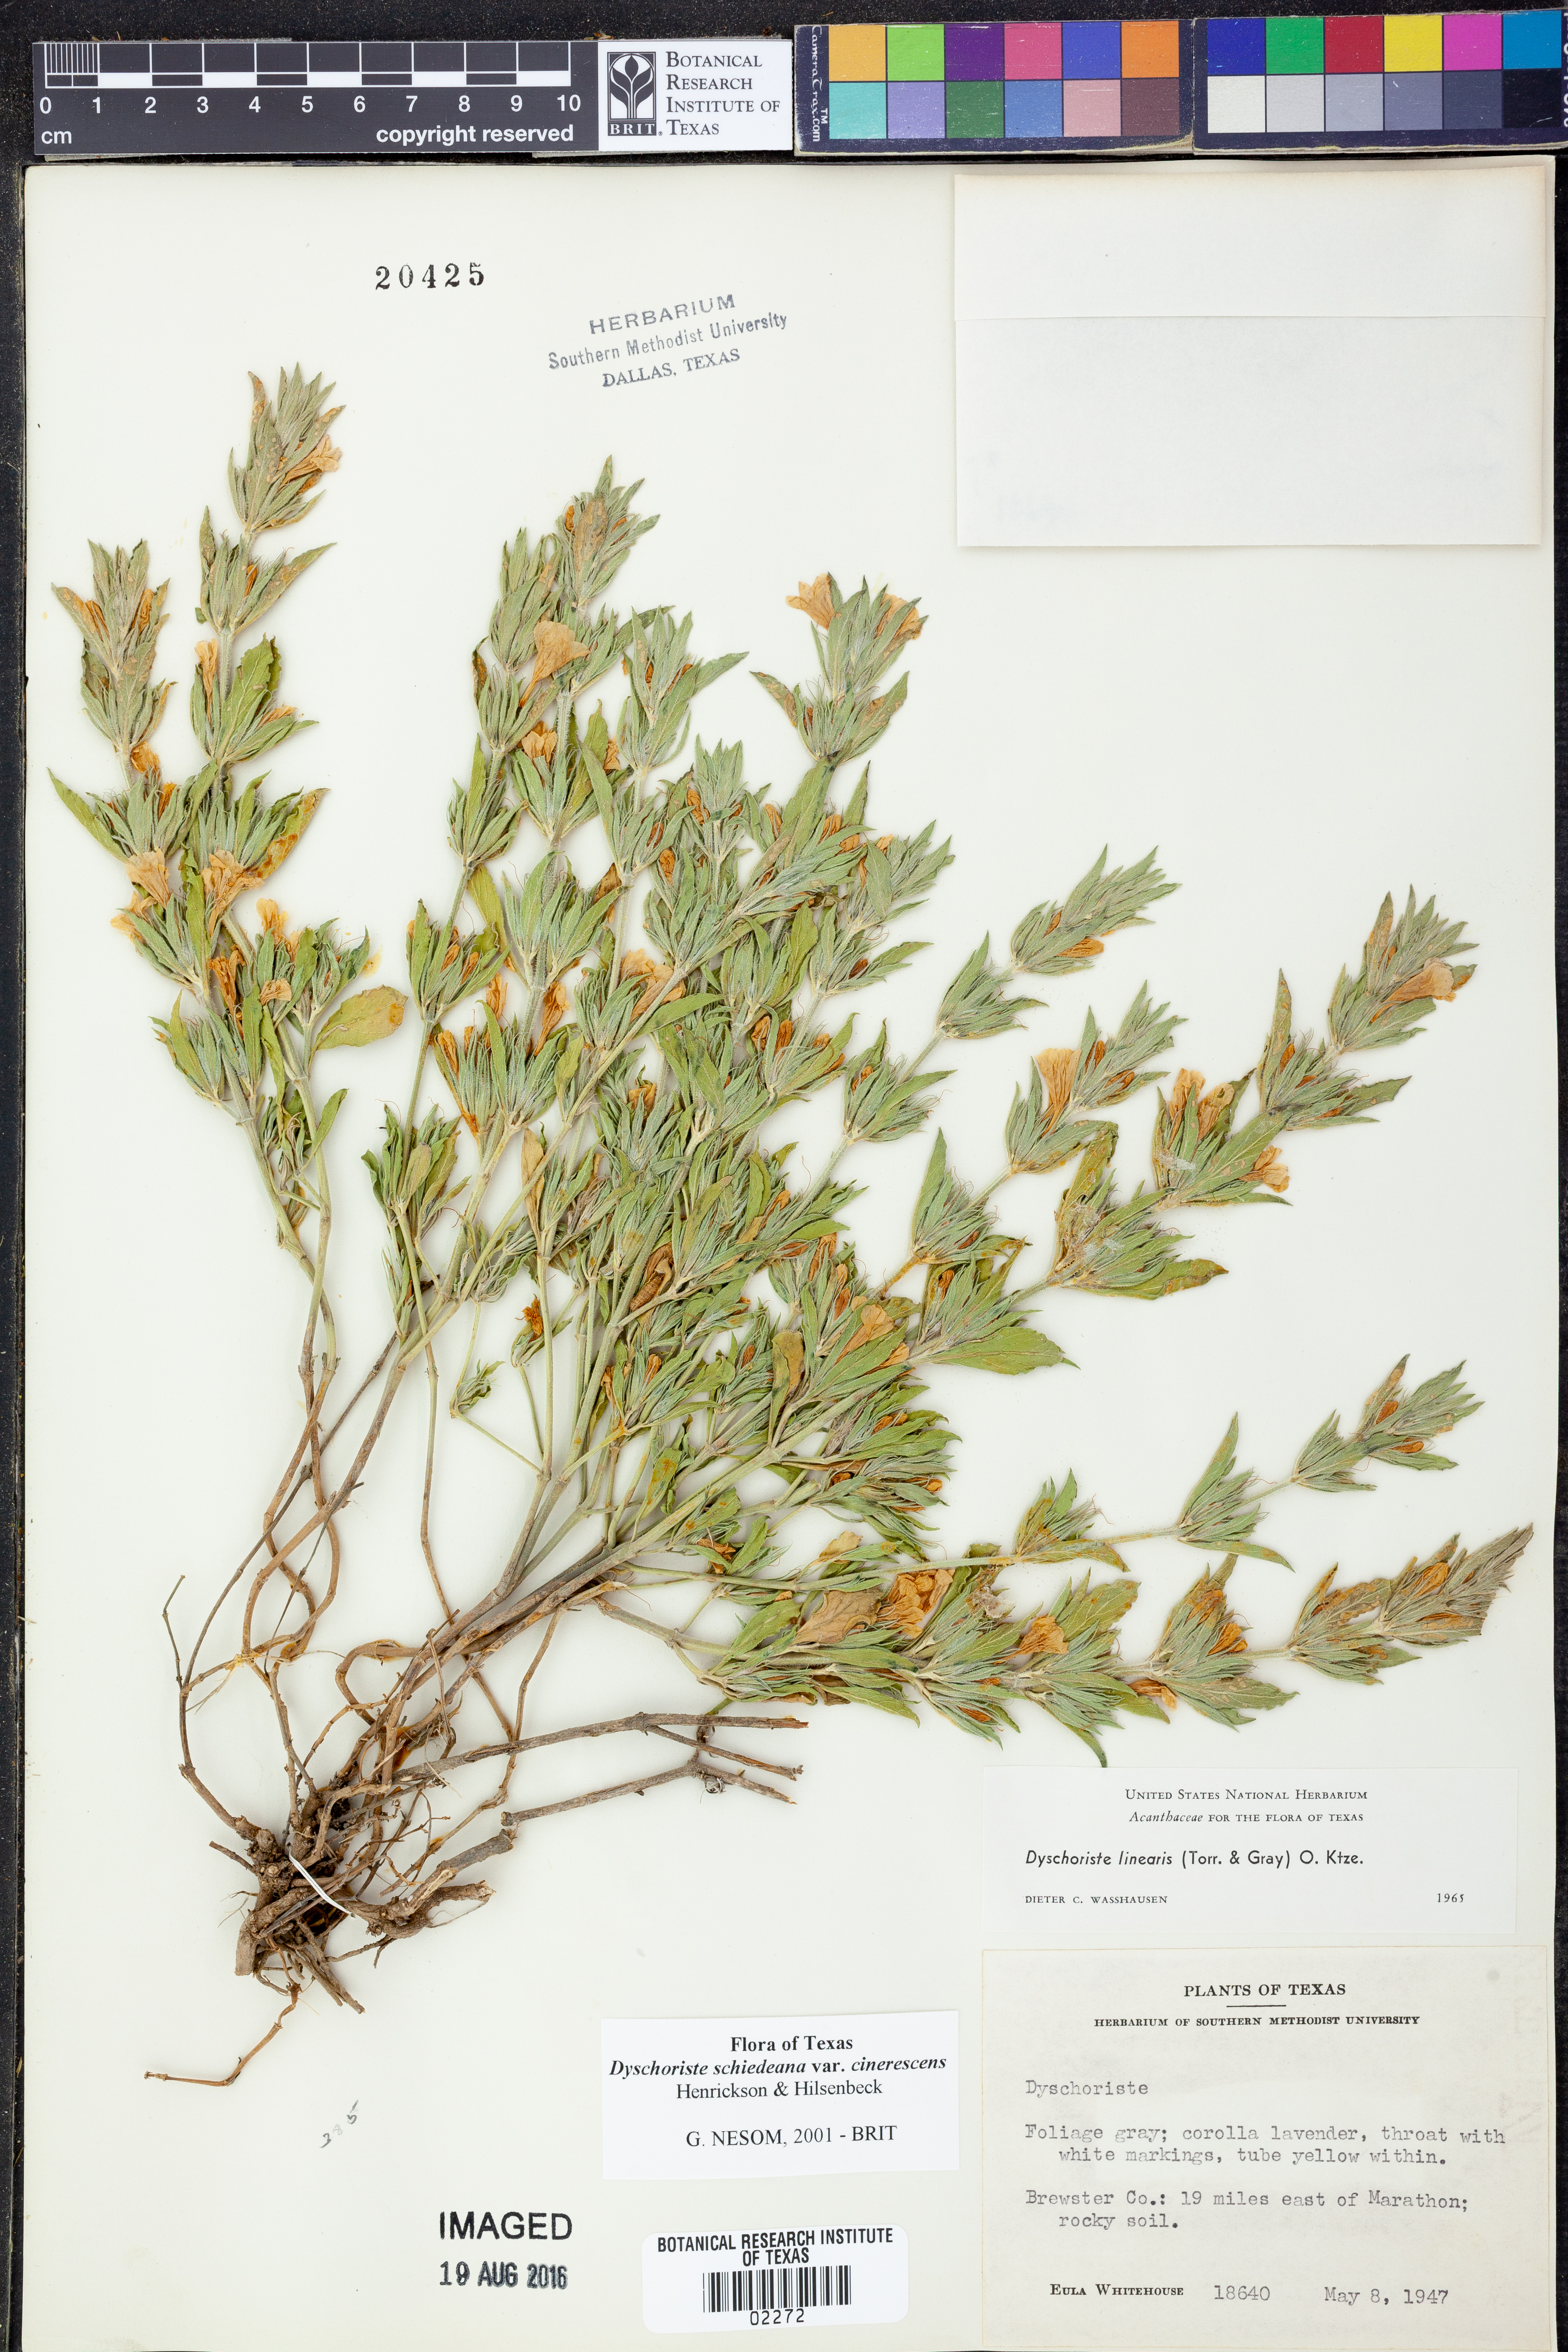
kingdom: Plantae
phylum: Tracheophyta
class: Magnoliopsida
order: Lamiales
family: Acanthaceae
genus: Dyschoriste
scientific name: Dyschoriste cinerascens
